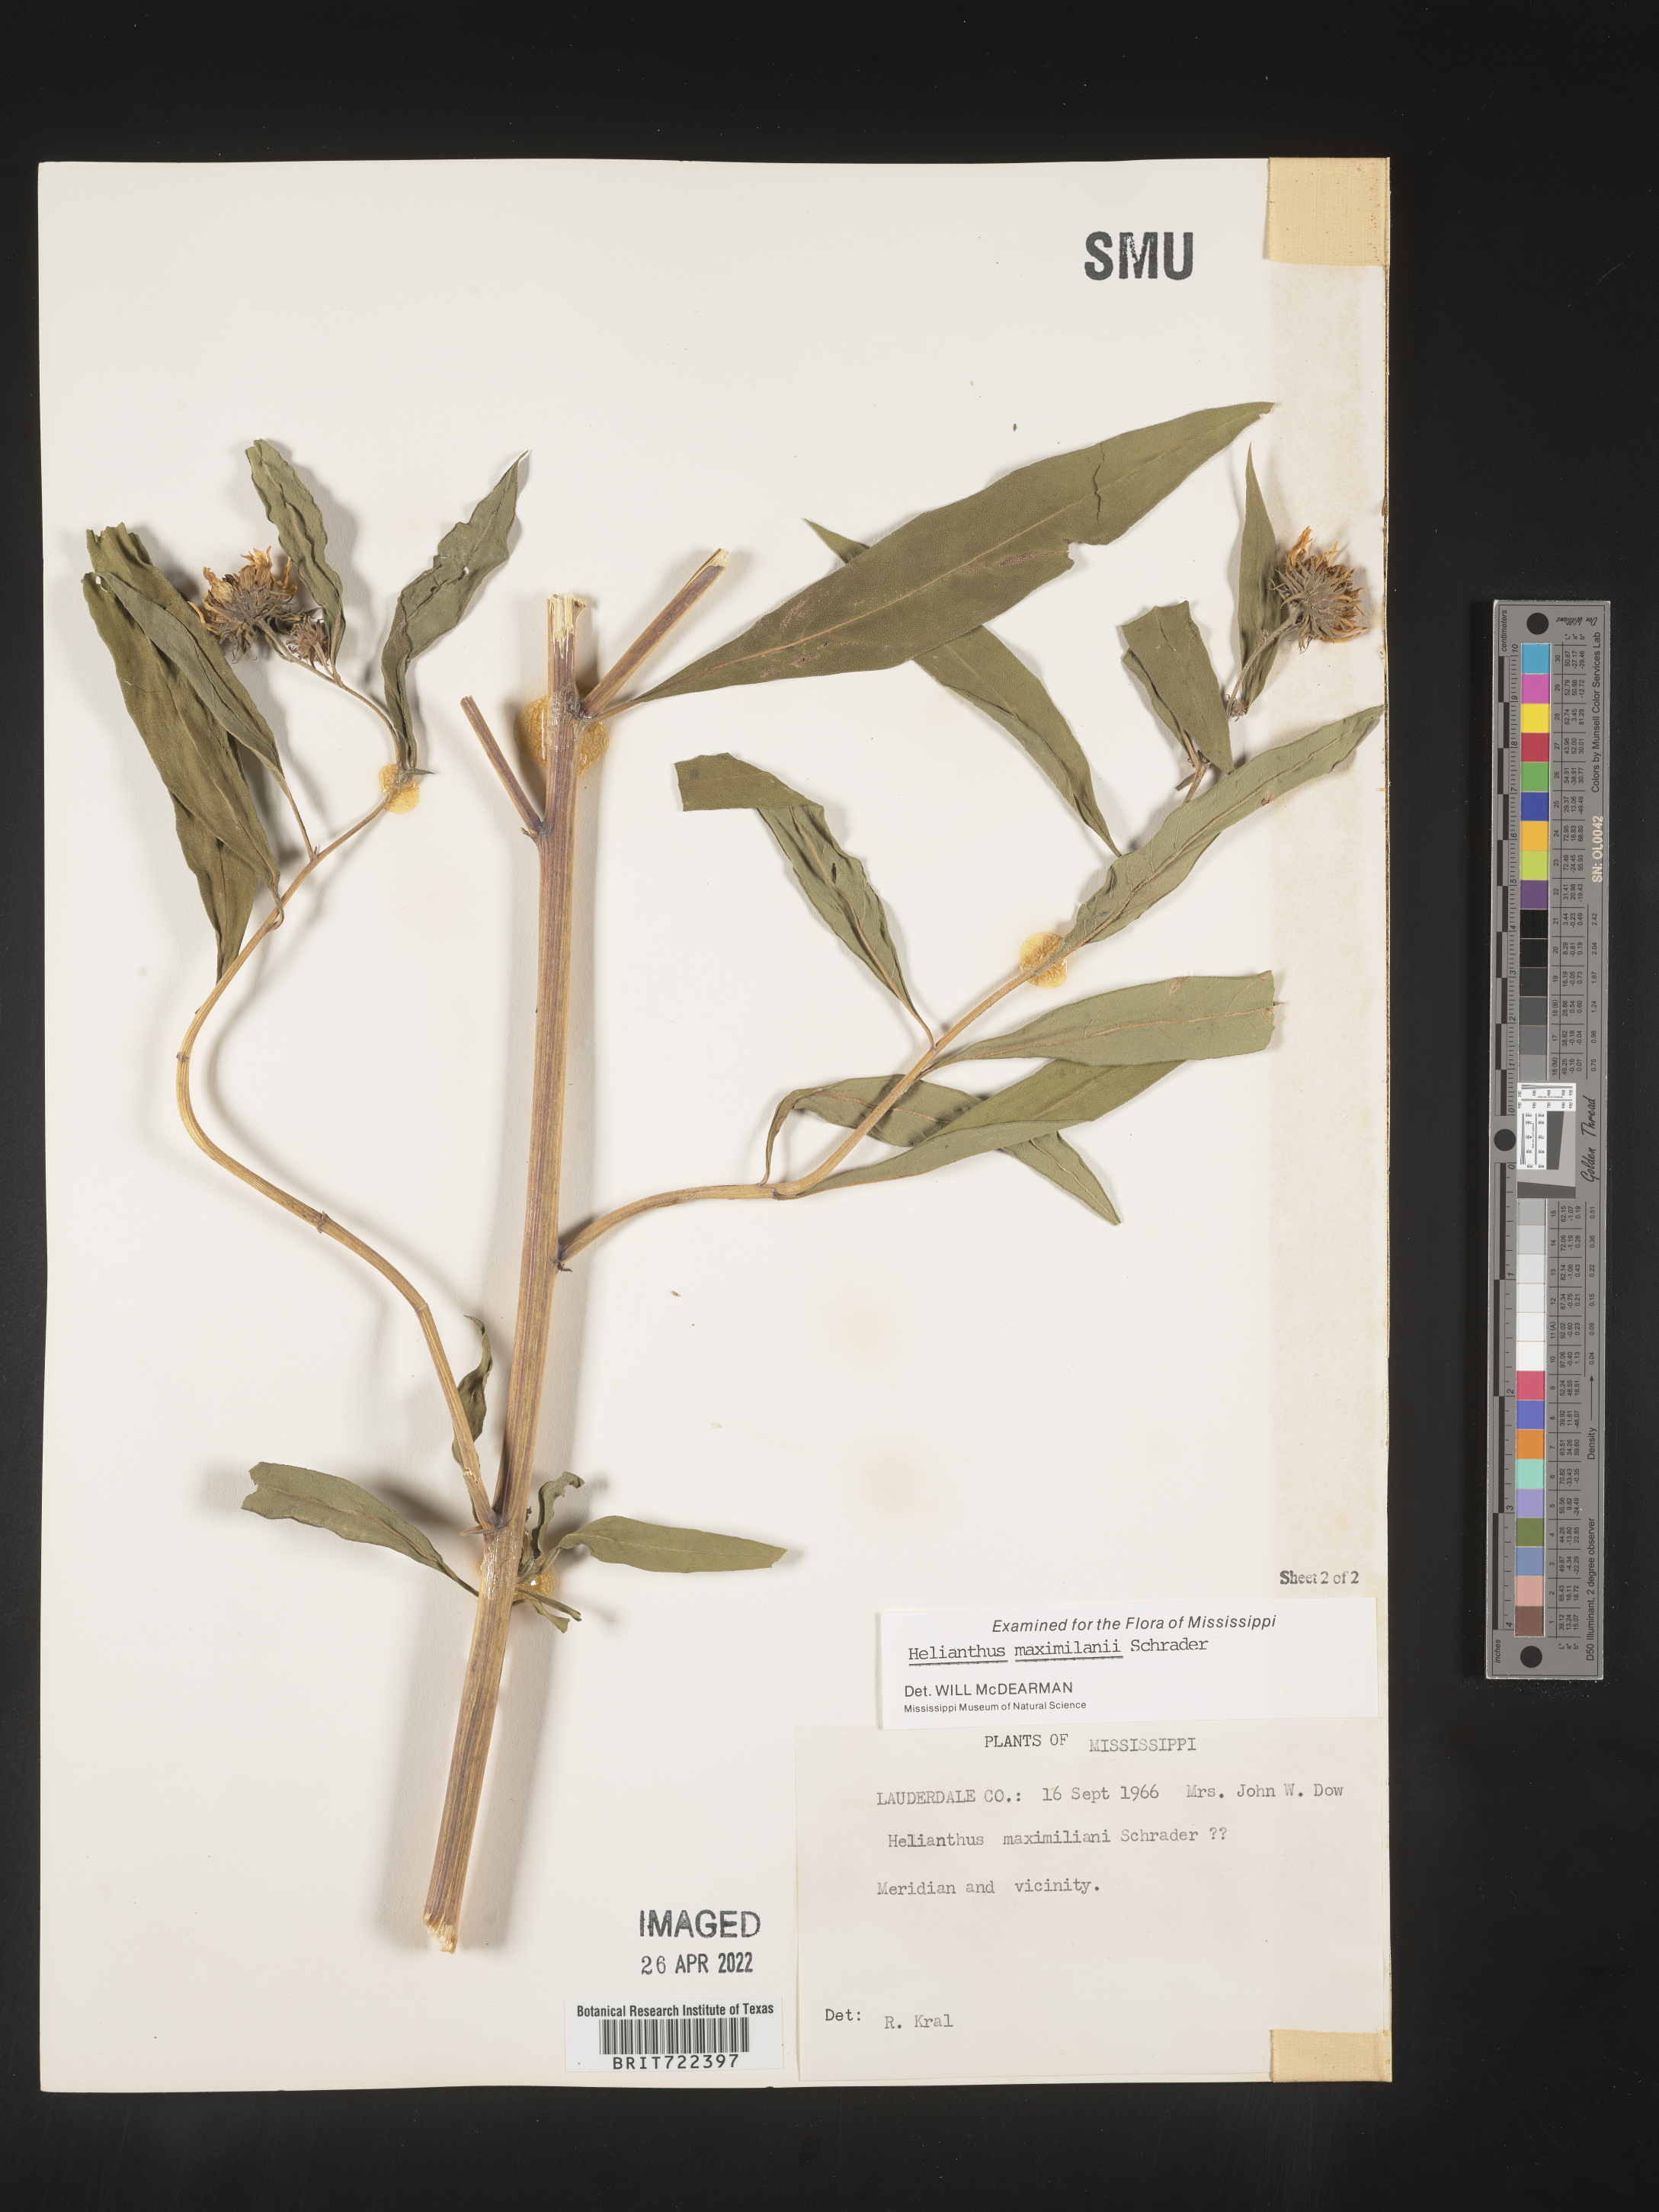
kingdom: Plantae
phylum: Tracheophyta
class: Magnoliopsida
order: Asterales
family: Asteraceae
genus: Helianthus
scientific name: Helianthus maximiliani
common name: Maximilian's sunflower
